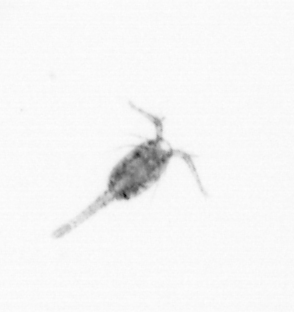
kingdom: Animalia
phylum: Arthropoda
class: Copepoda
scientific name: Copepoda
